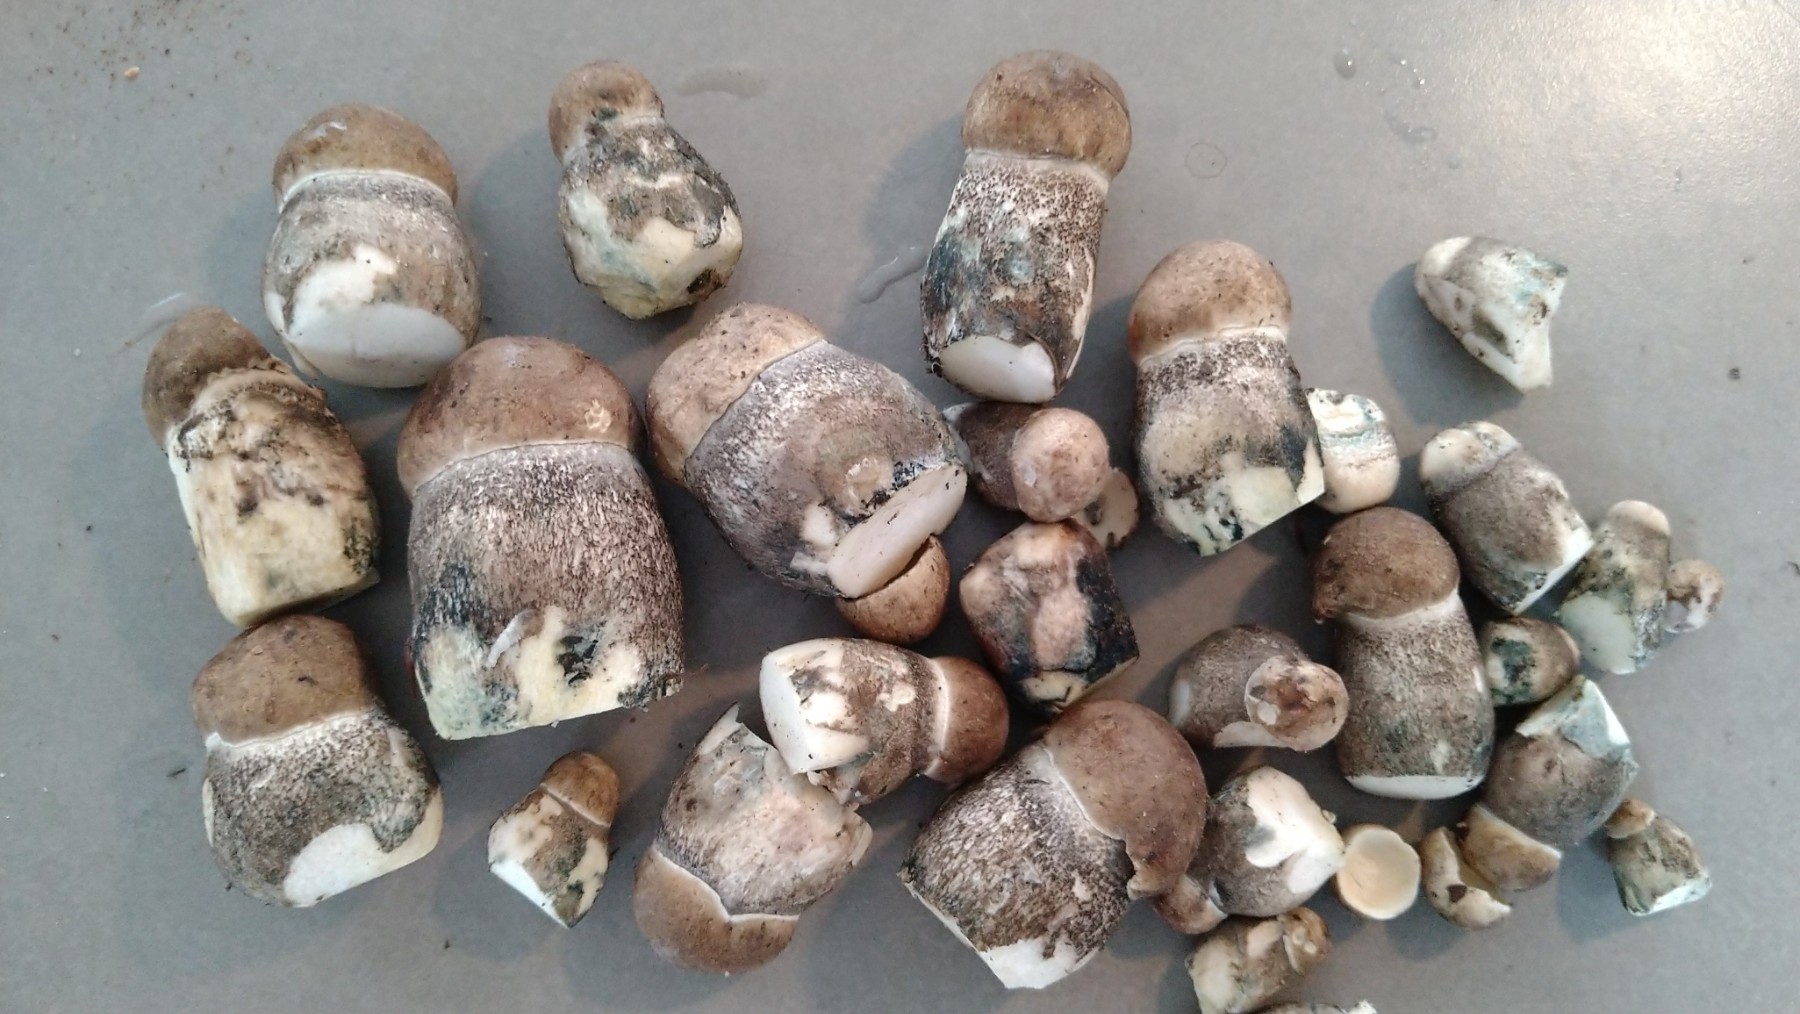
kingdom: Fungi
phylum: Basidiomycota
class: Agaricomycetes
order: Boletales
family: Boletaceae
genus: Leccinum
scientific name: Leccinum duriusculum
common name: poppel-skælrørhat
